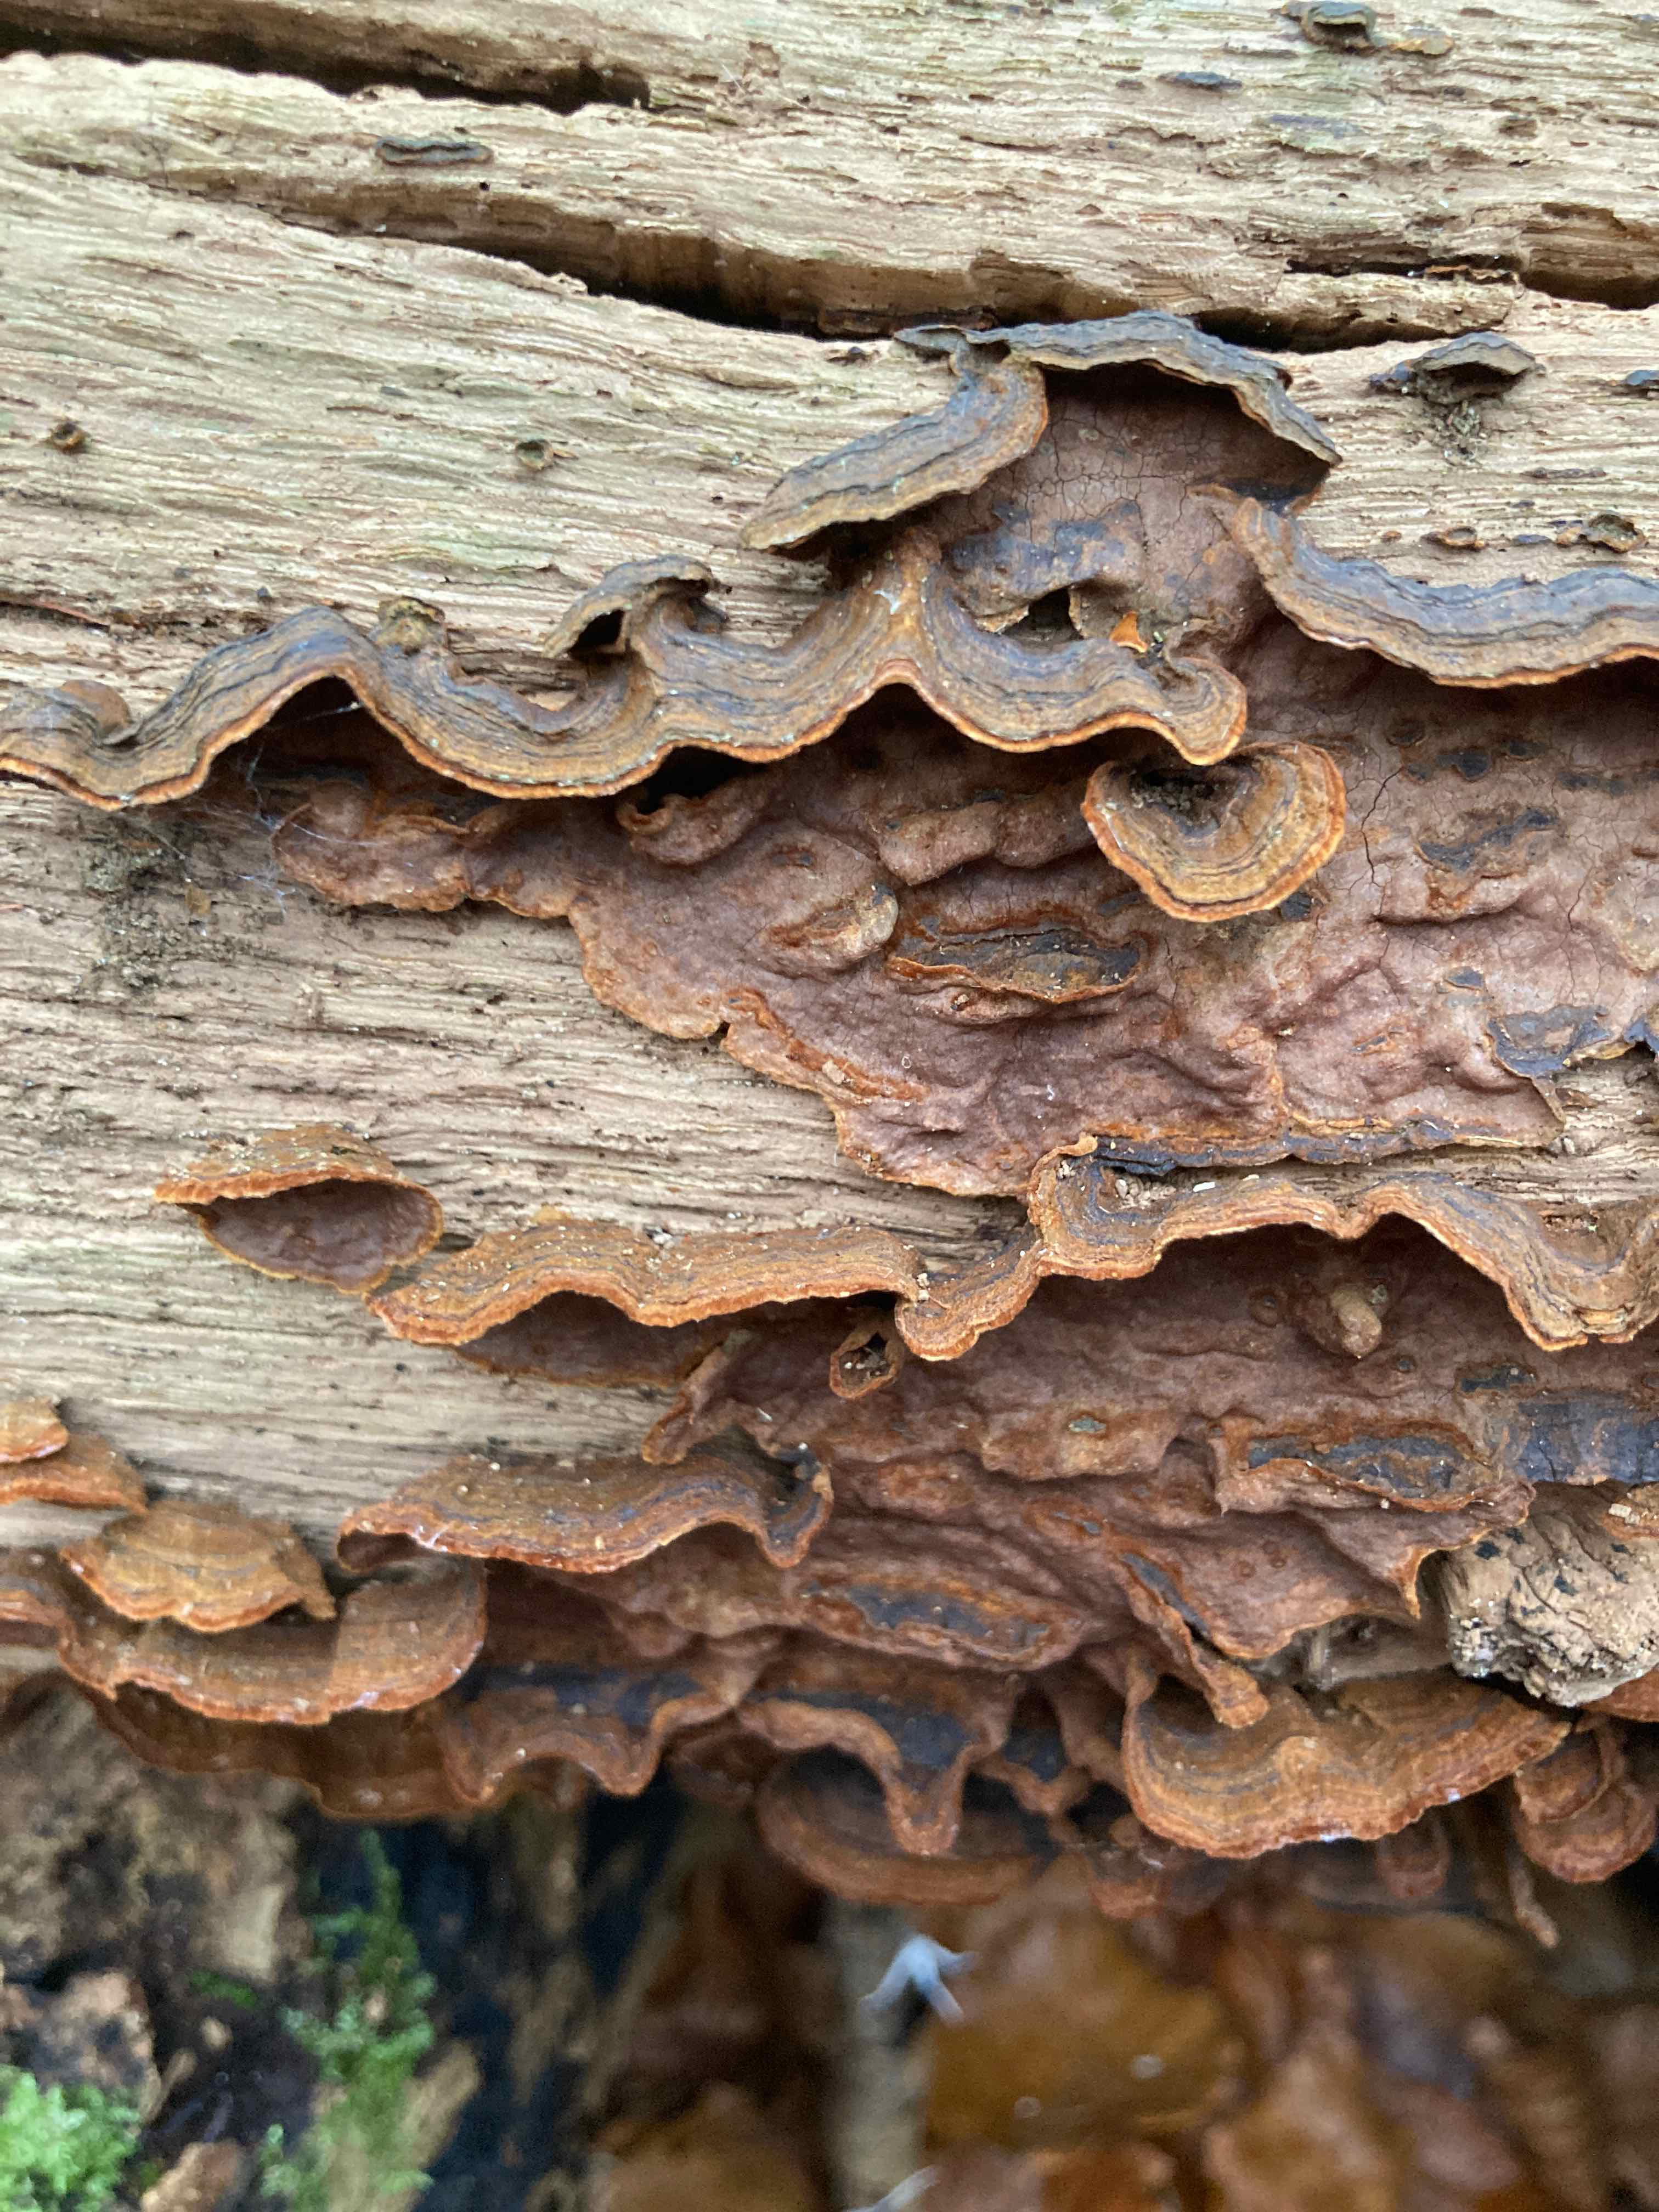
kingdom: Fungi
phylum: Basidiomycota
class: Agaricomycetes
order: Hymenochaetales
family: Hymenochaetaceae
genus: Hymenochaete
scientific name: Hymenochaete rubiginosa
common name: stiv ruslædersvamp
